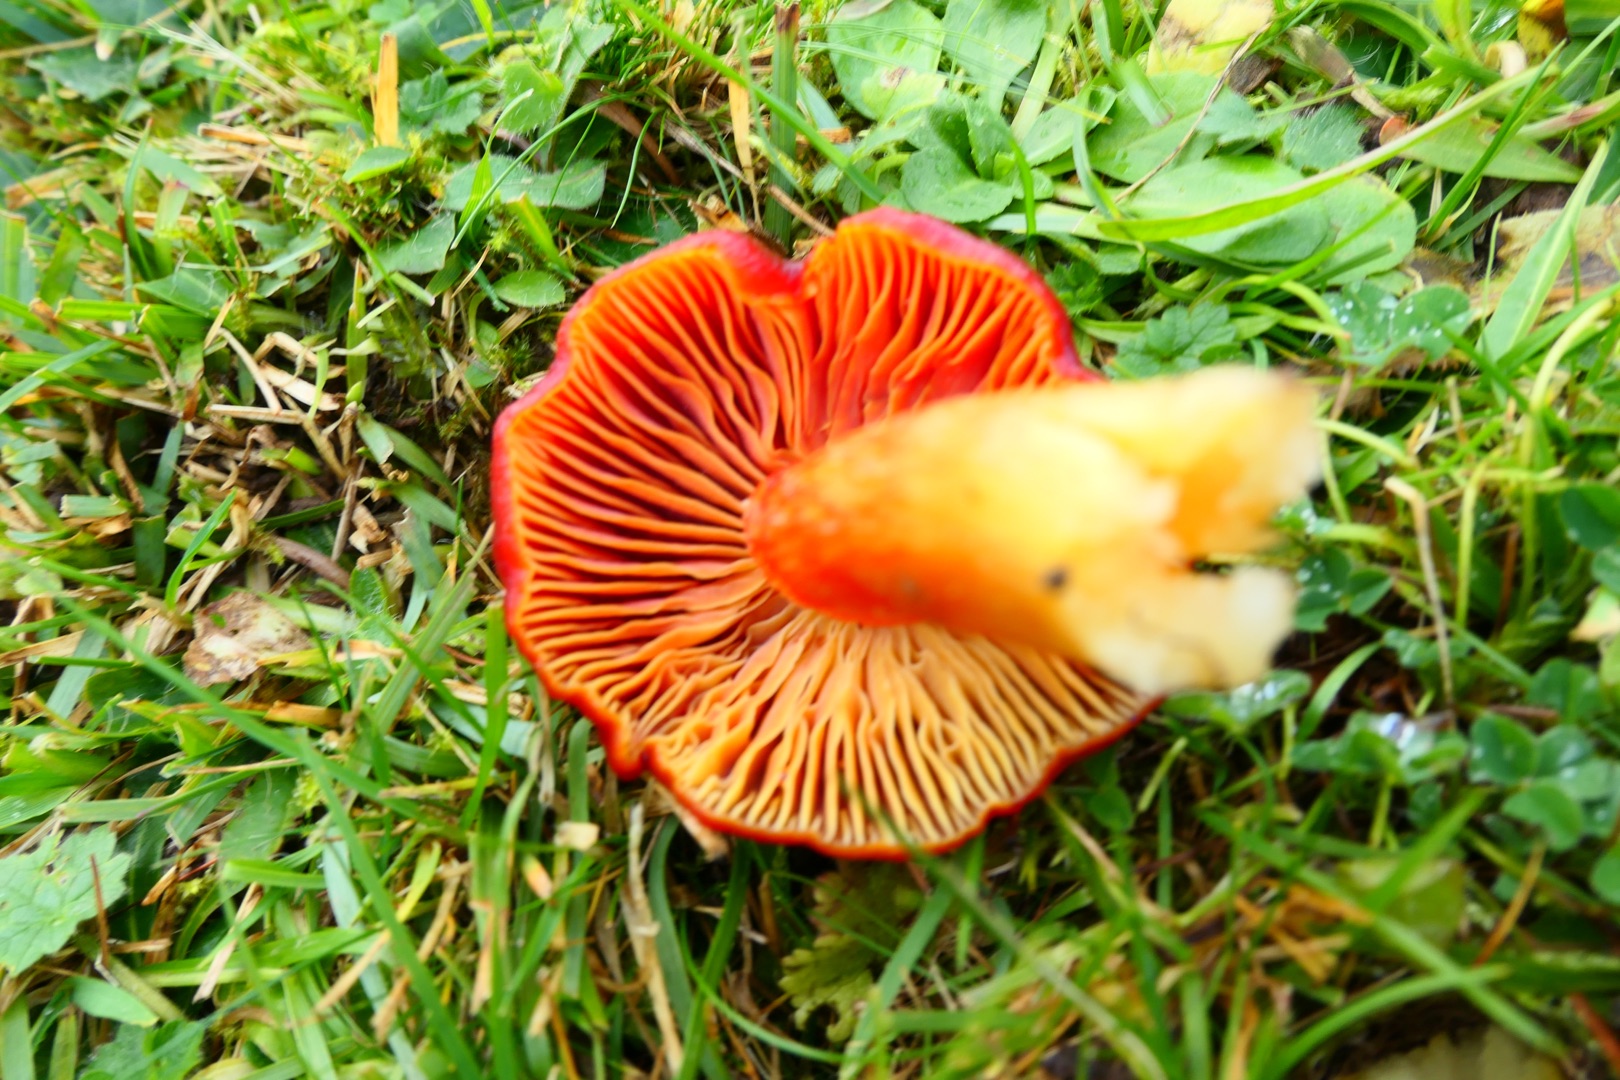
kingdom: Fungi
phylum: Basidiomycota
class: Agaricomycetes
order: Agaricales
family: Hygrophoraceae
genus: Hygrocybe
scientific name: Hygrocybe punicea
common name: Skarlagen-vokshat
